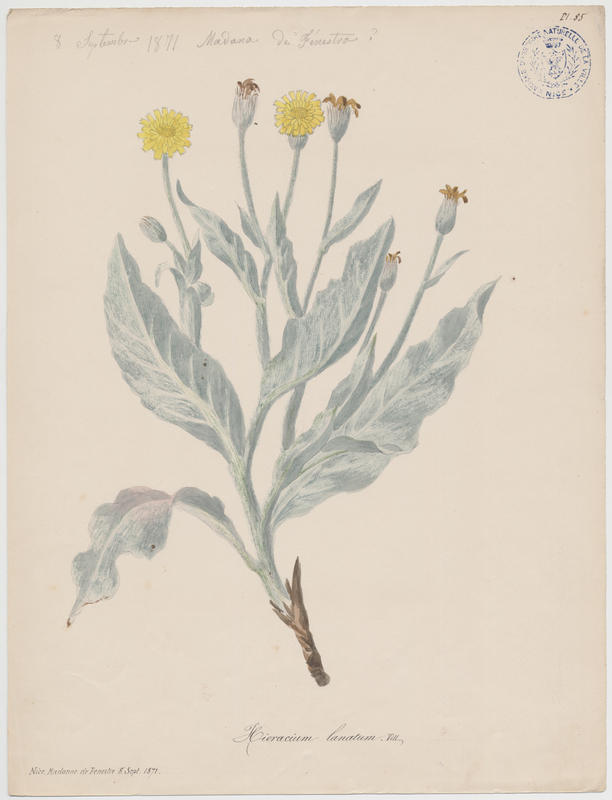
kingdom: Plantae
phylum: Tracheophyta
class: Magnoliopsida
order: Asterales
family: Asteraceae
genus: Hieracium
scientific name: Hieracium tomentosum
